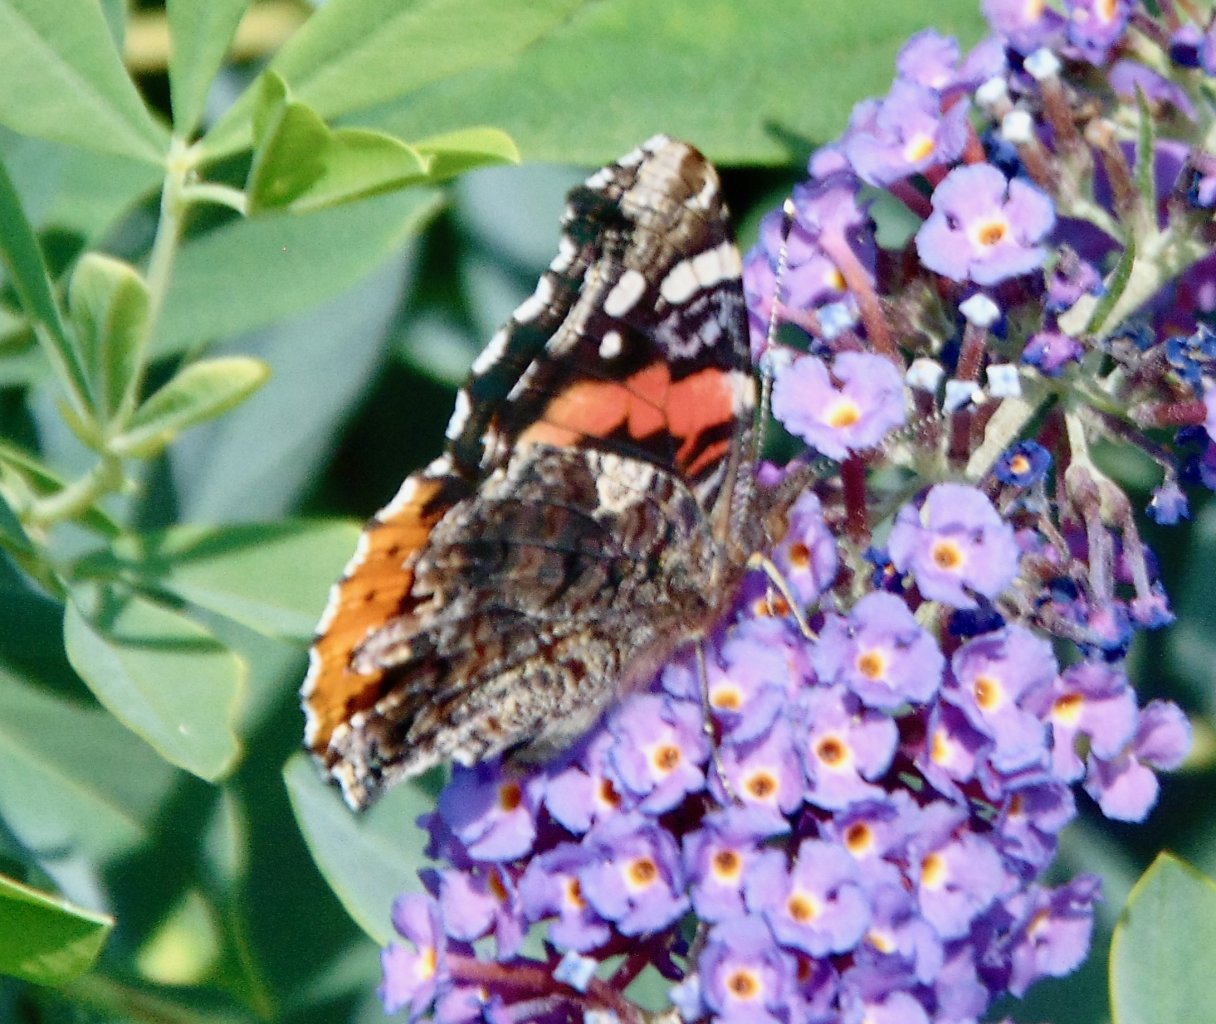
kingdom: Animalia
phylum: Arthropoda
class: Insecta
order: Lepidoptera
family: Nymphalidae
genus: Vanessa
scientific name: Vanessa atalanta
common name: Red Admiral
